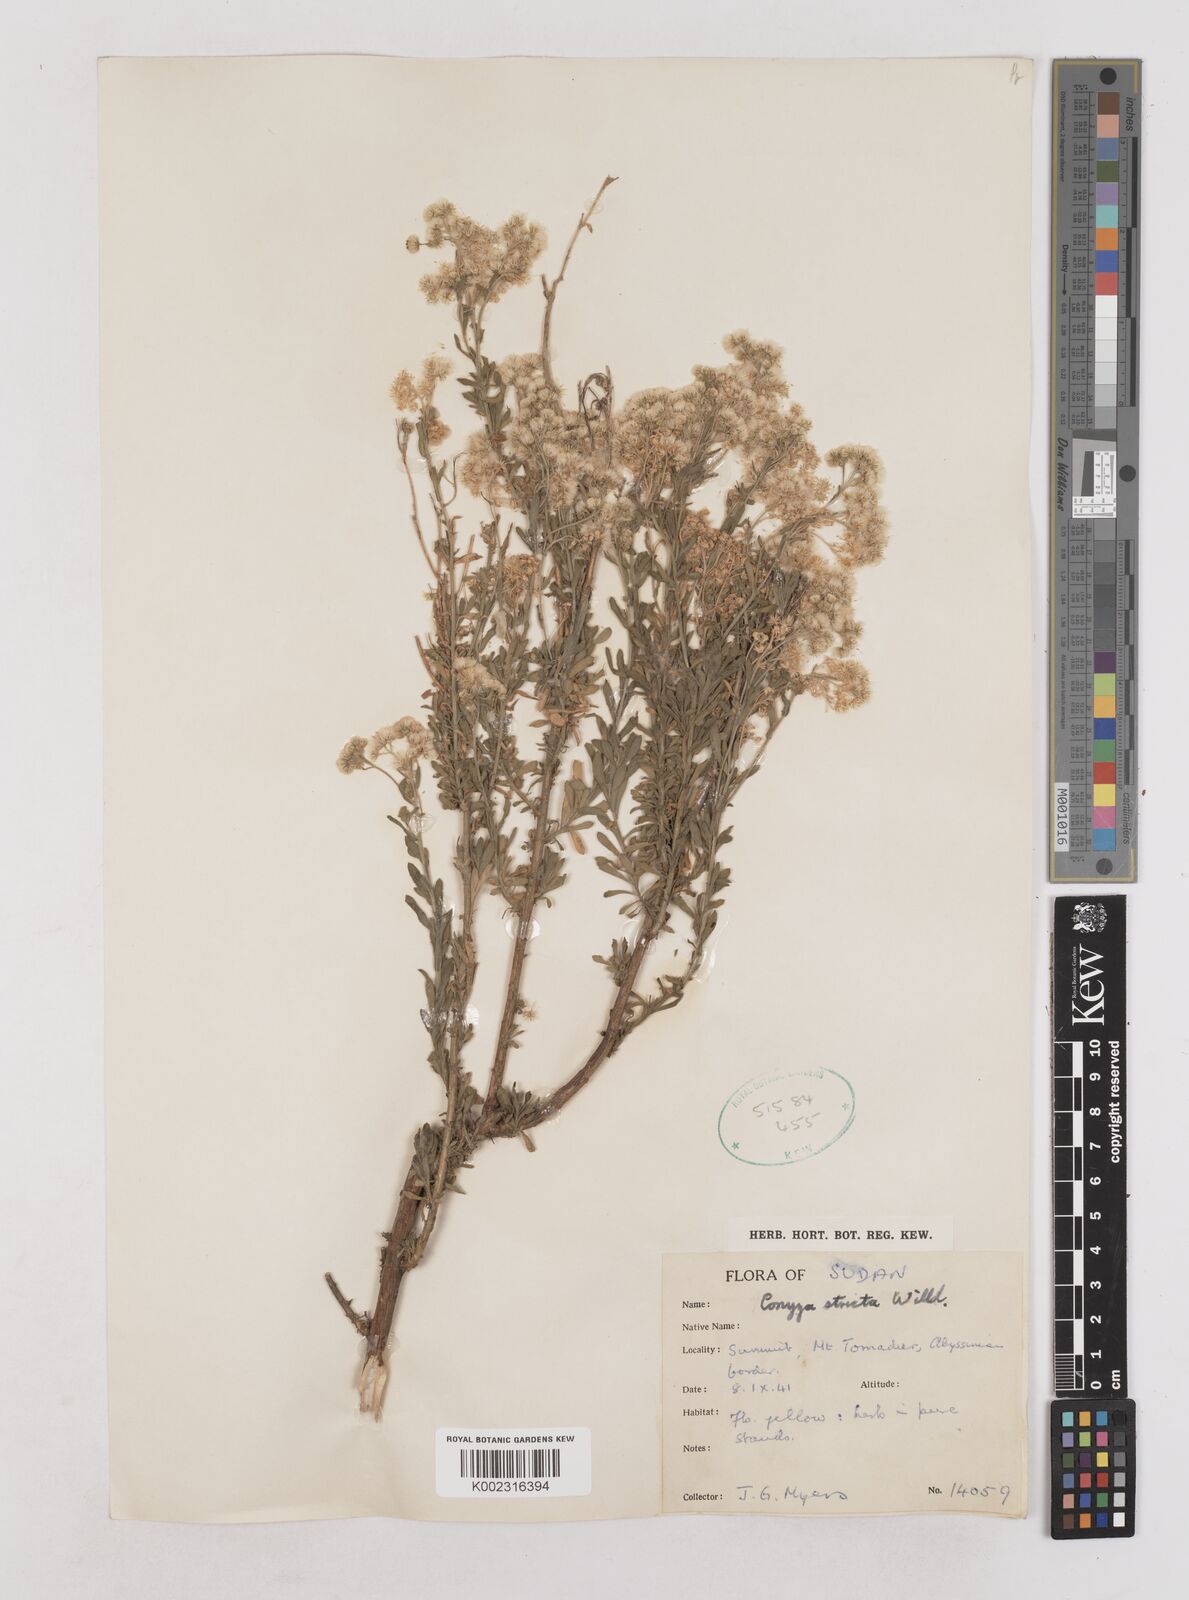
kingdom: Plantae
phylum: Tracheophyta
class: Magnoliopsida
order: Asterales
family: Asteraceae
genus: Nidorella
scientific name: Nidorella triloba
